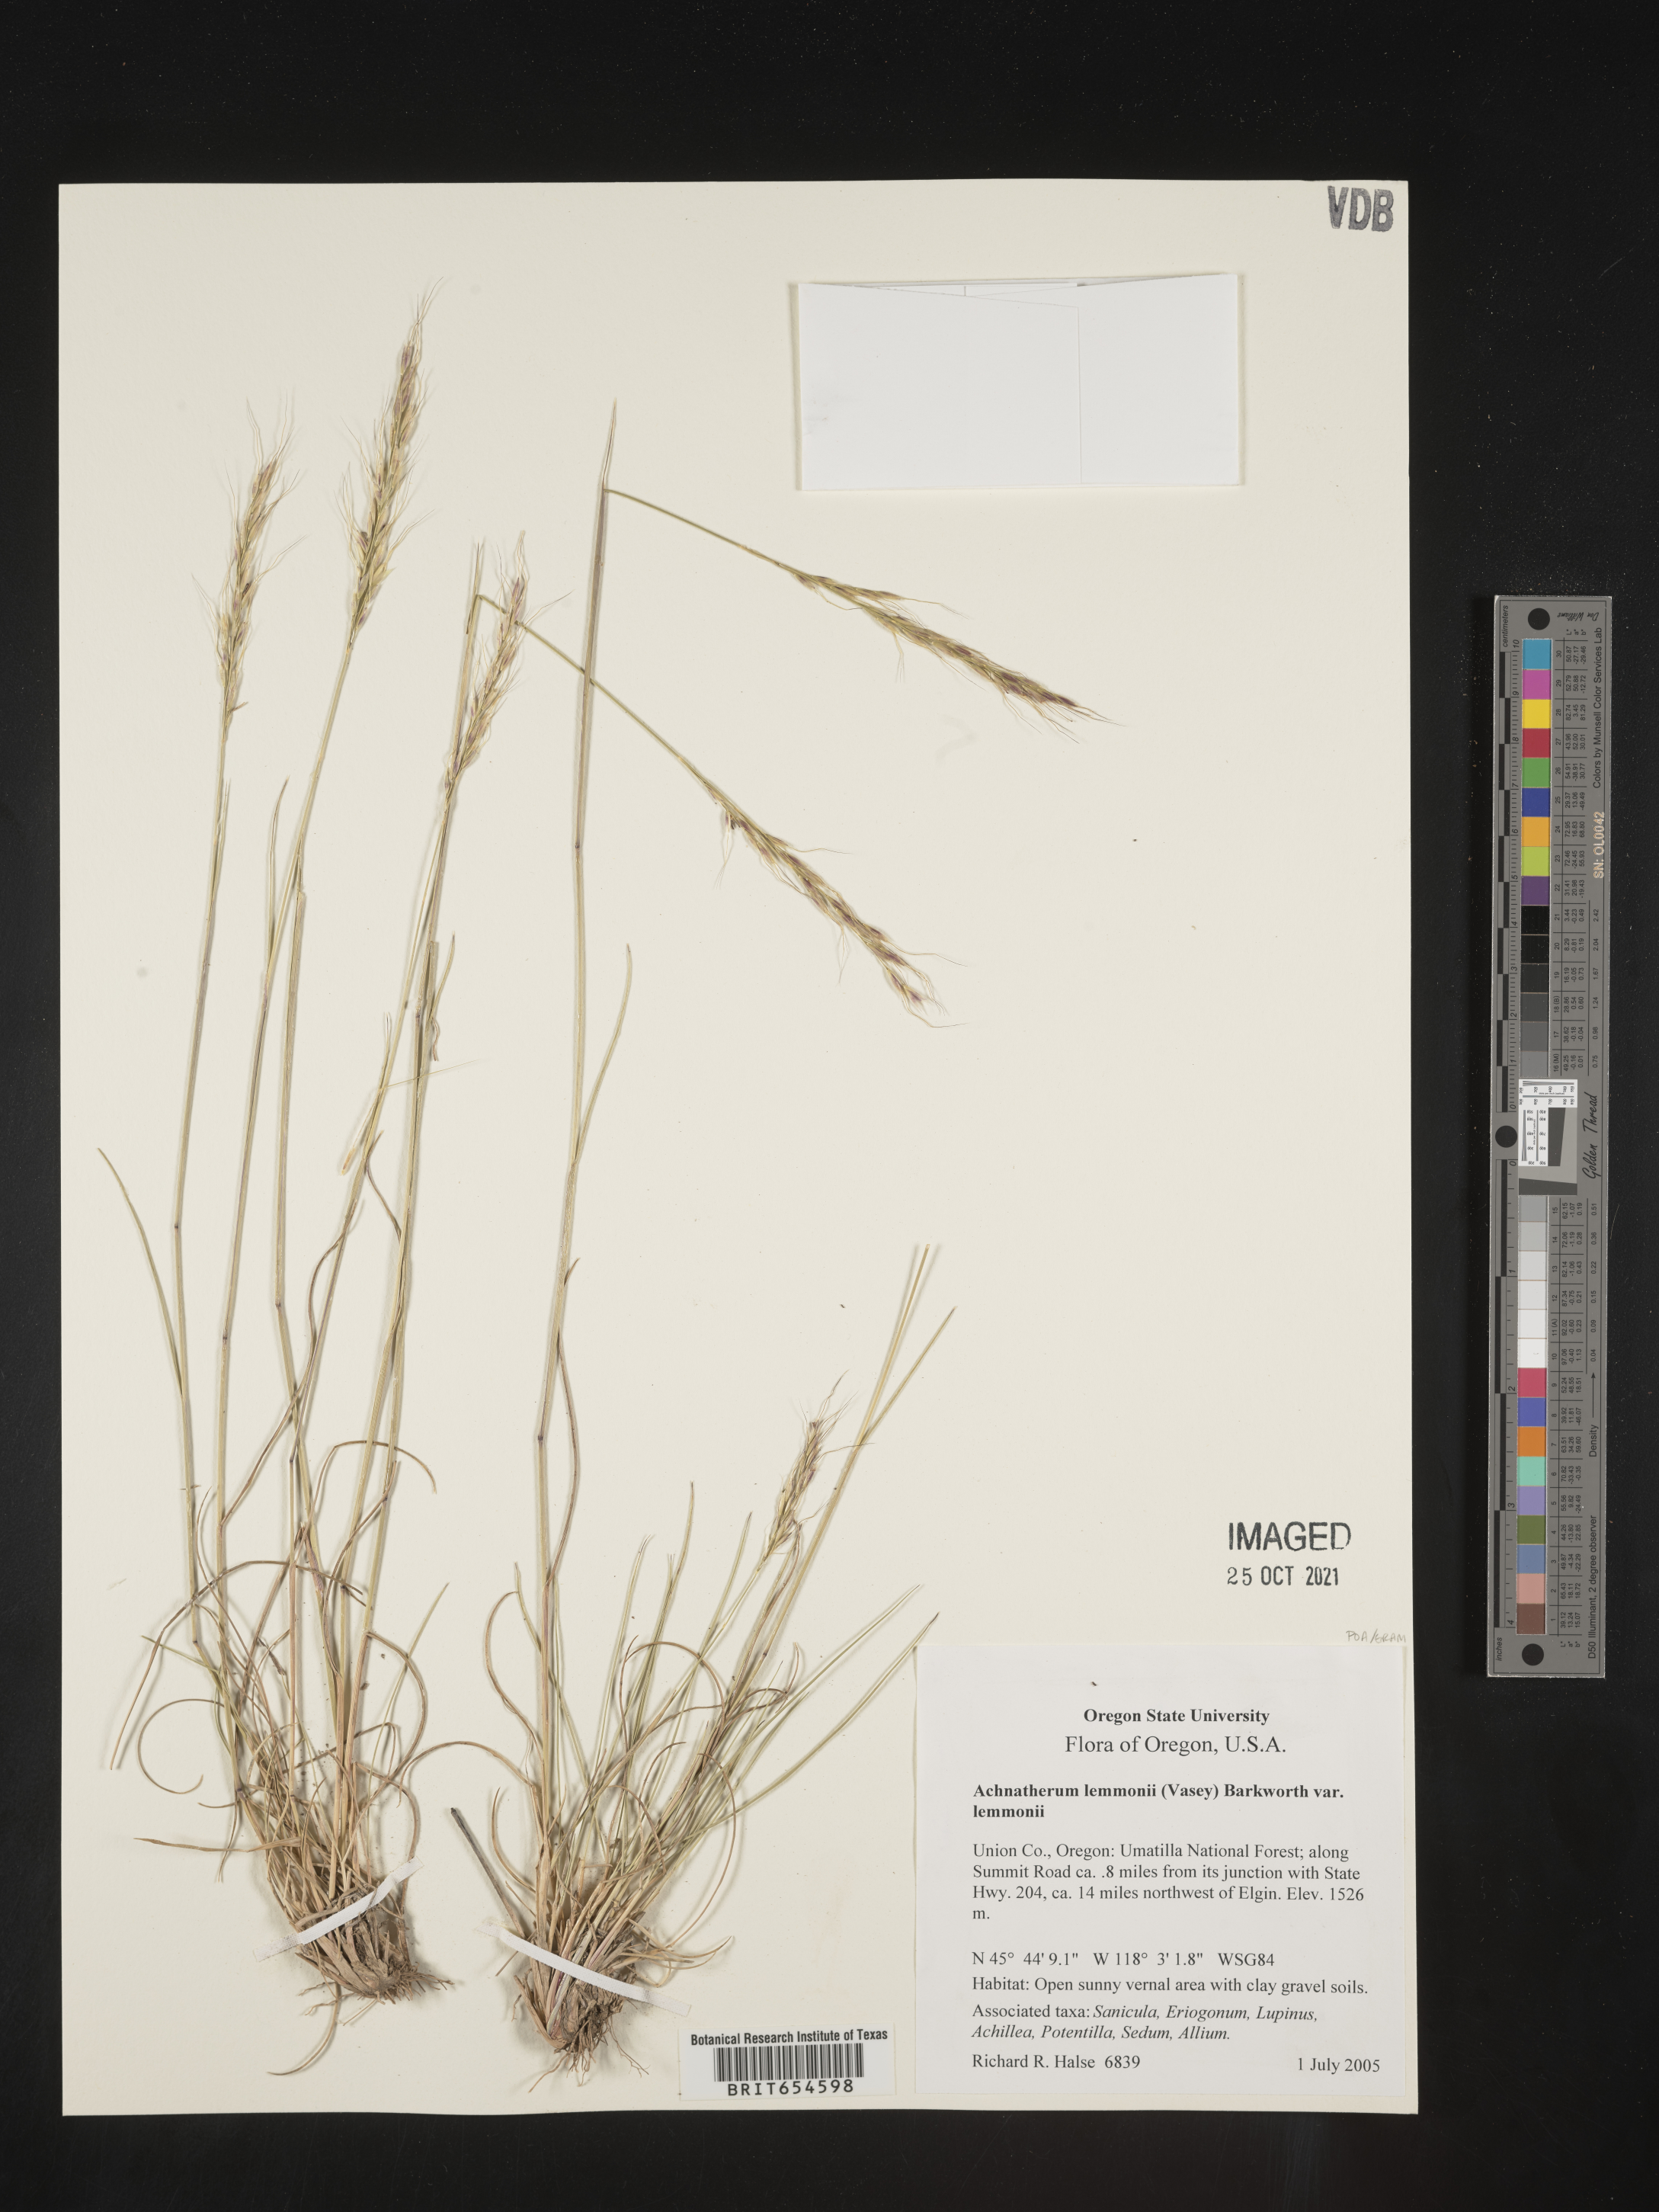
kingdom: Plantae
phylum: Tracheophyta
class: Liliopsida
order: Poales
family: Poaceae
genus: Achnatherum
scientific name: Achnatherum
